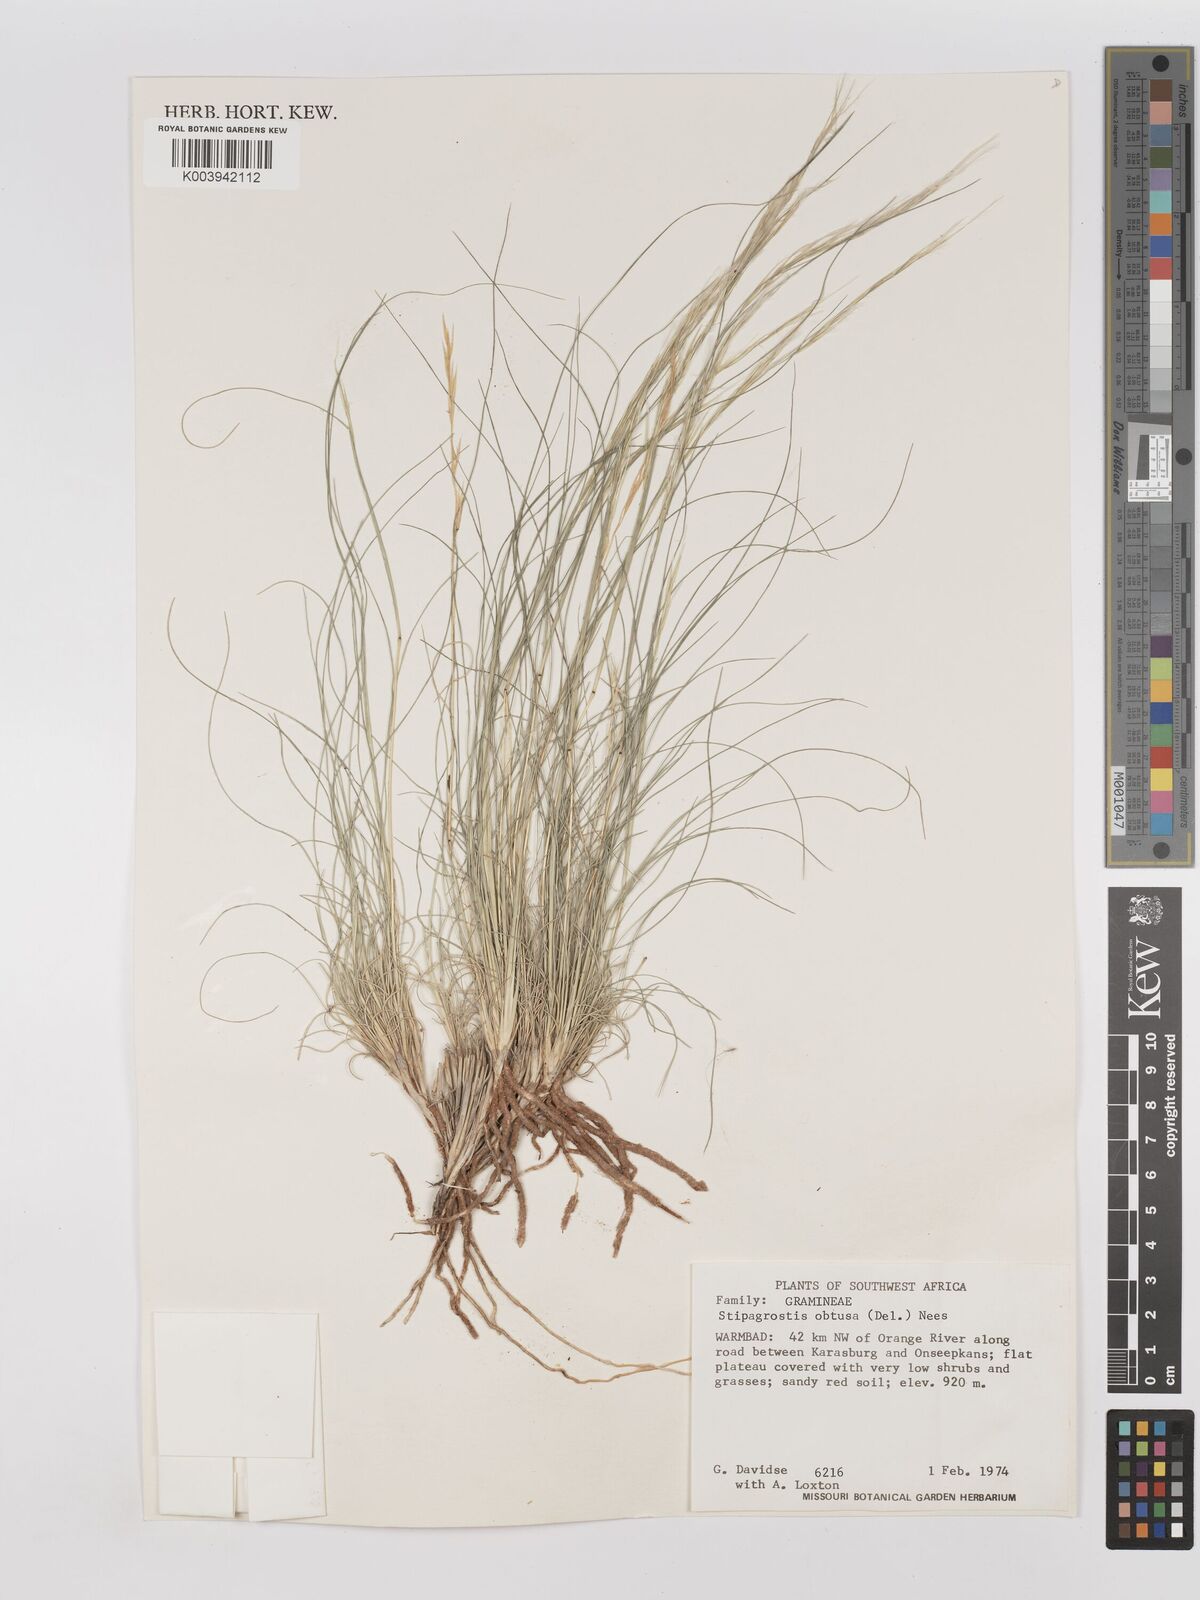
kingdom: Plantae
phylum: Tracheophyta
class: Liliopsida
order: Poales
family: Poaceae
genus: Stipagrostis
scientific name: Stipagrostis obtusa
